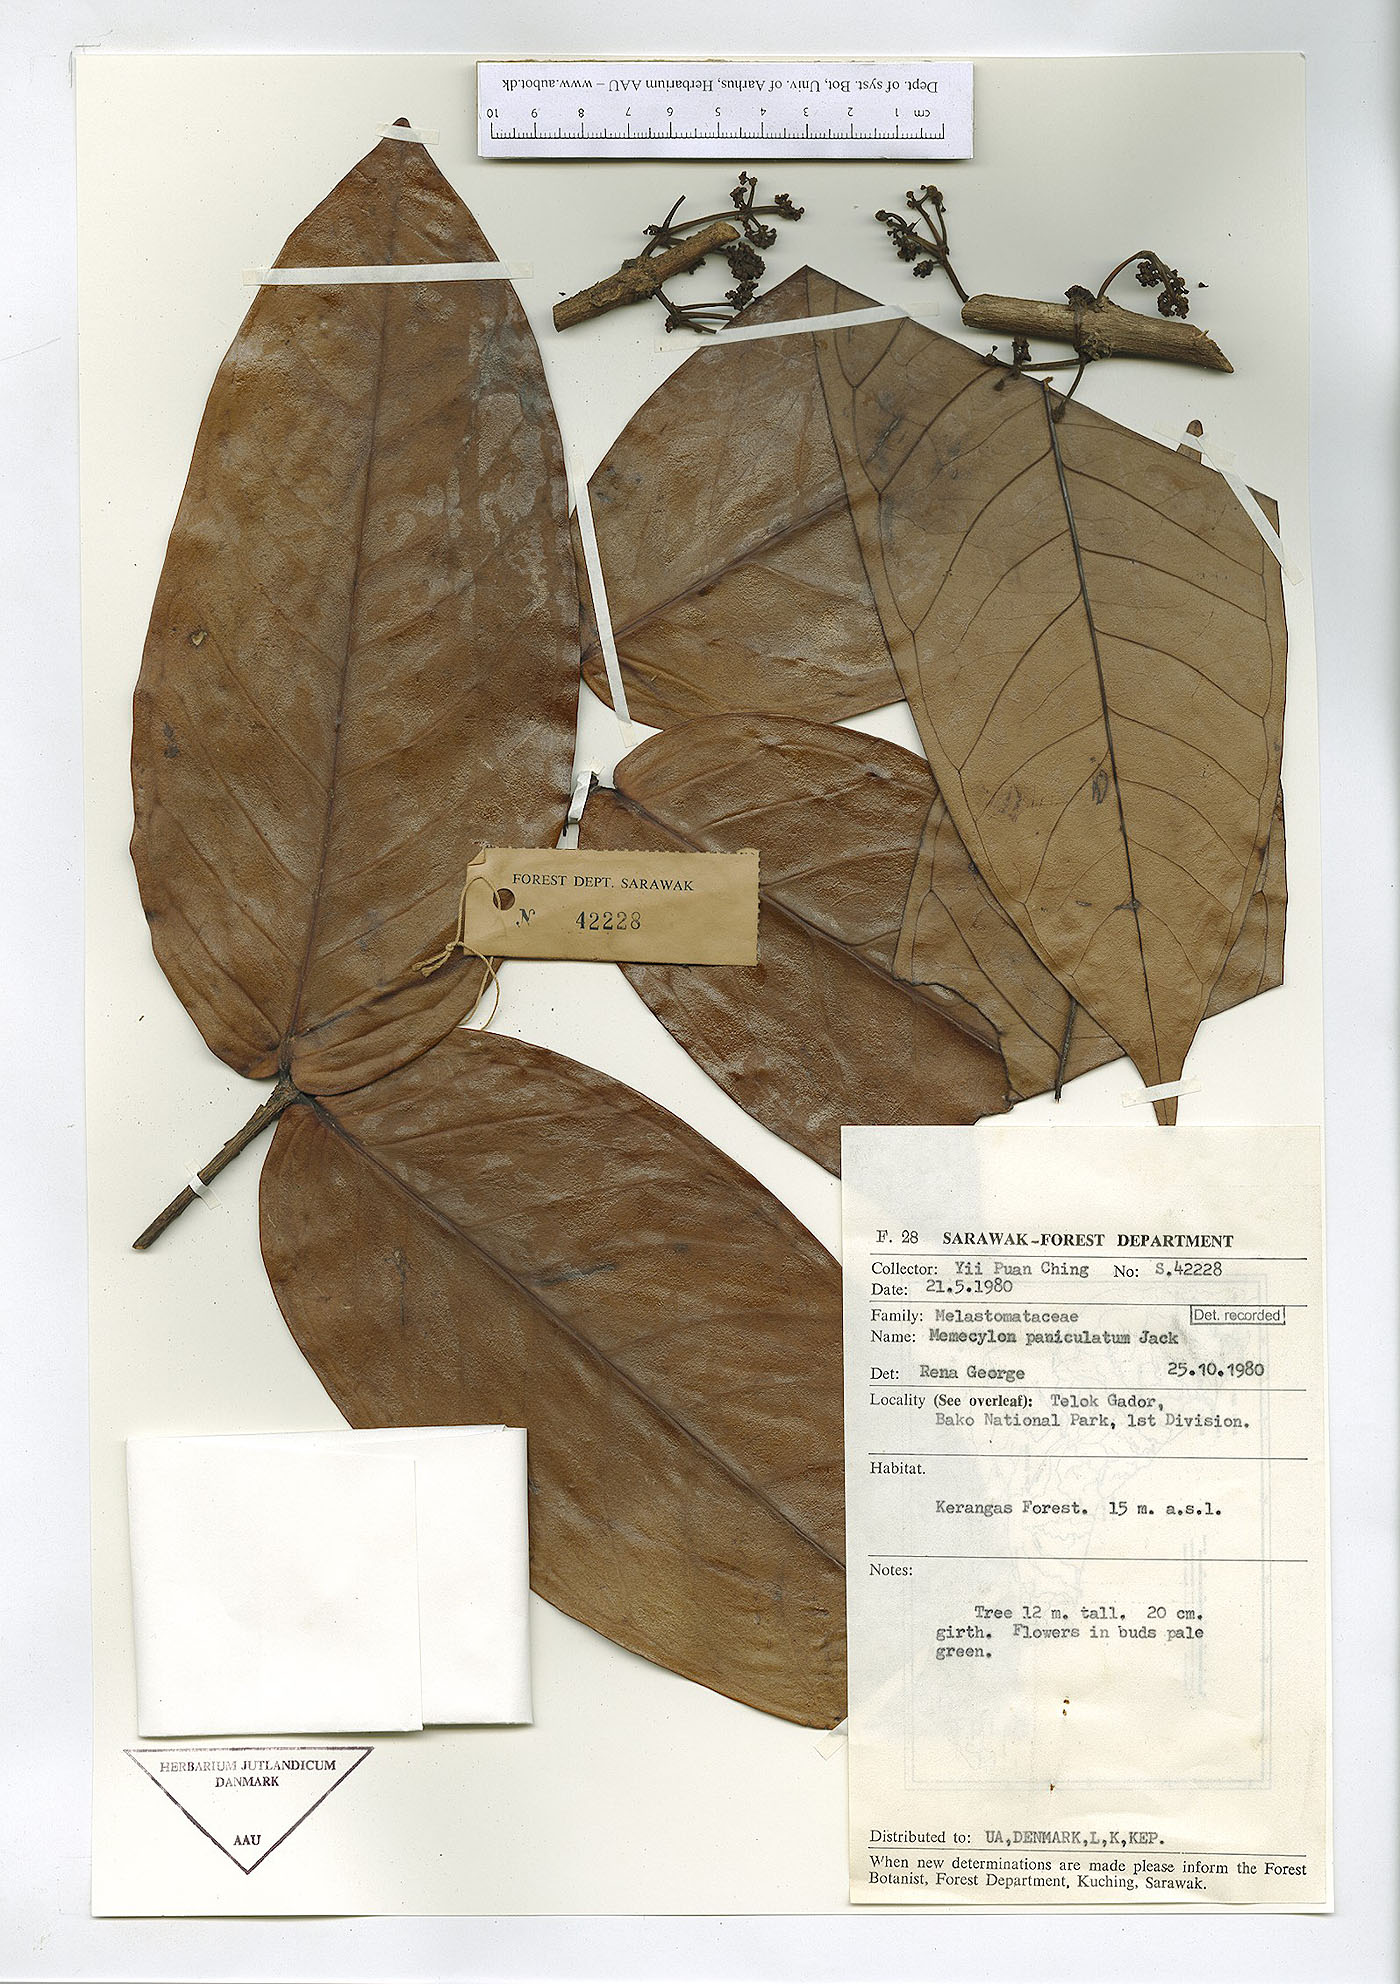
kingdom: Plantae
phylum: Tracheophyta
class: Magnoliopsida
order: Myrtales
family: Melastomataceae
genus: Memecylon
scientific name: Memecylon paniculatum
